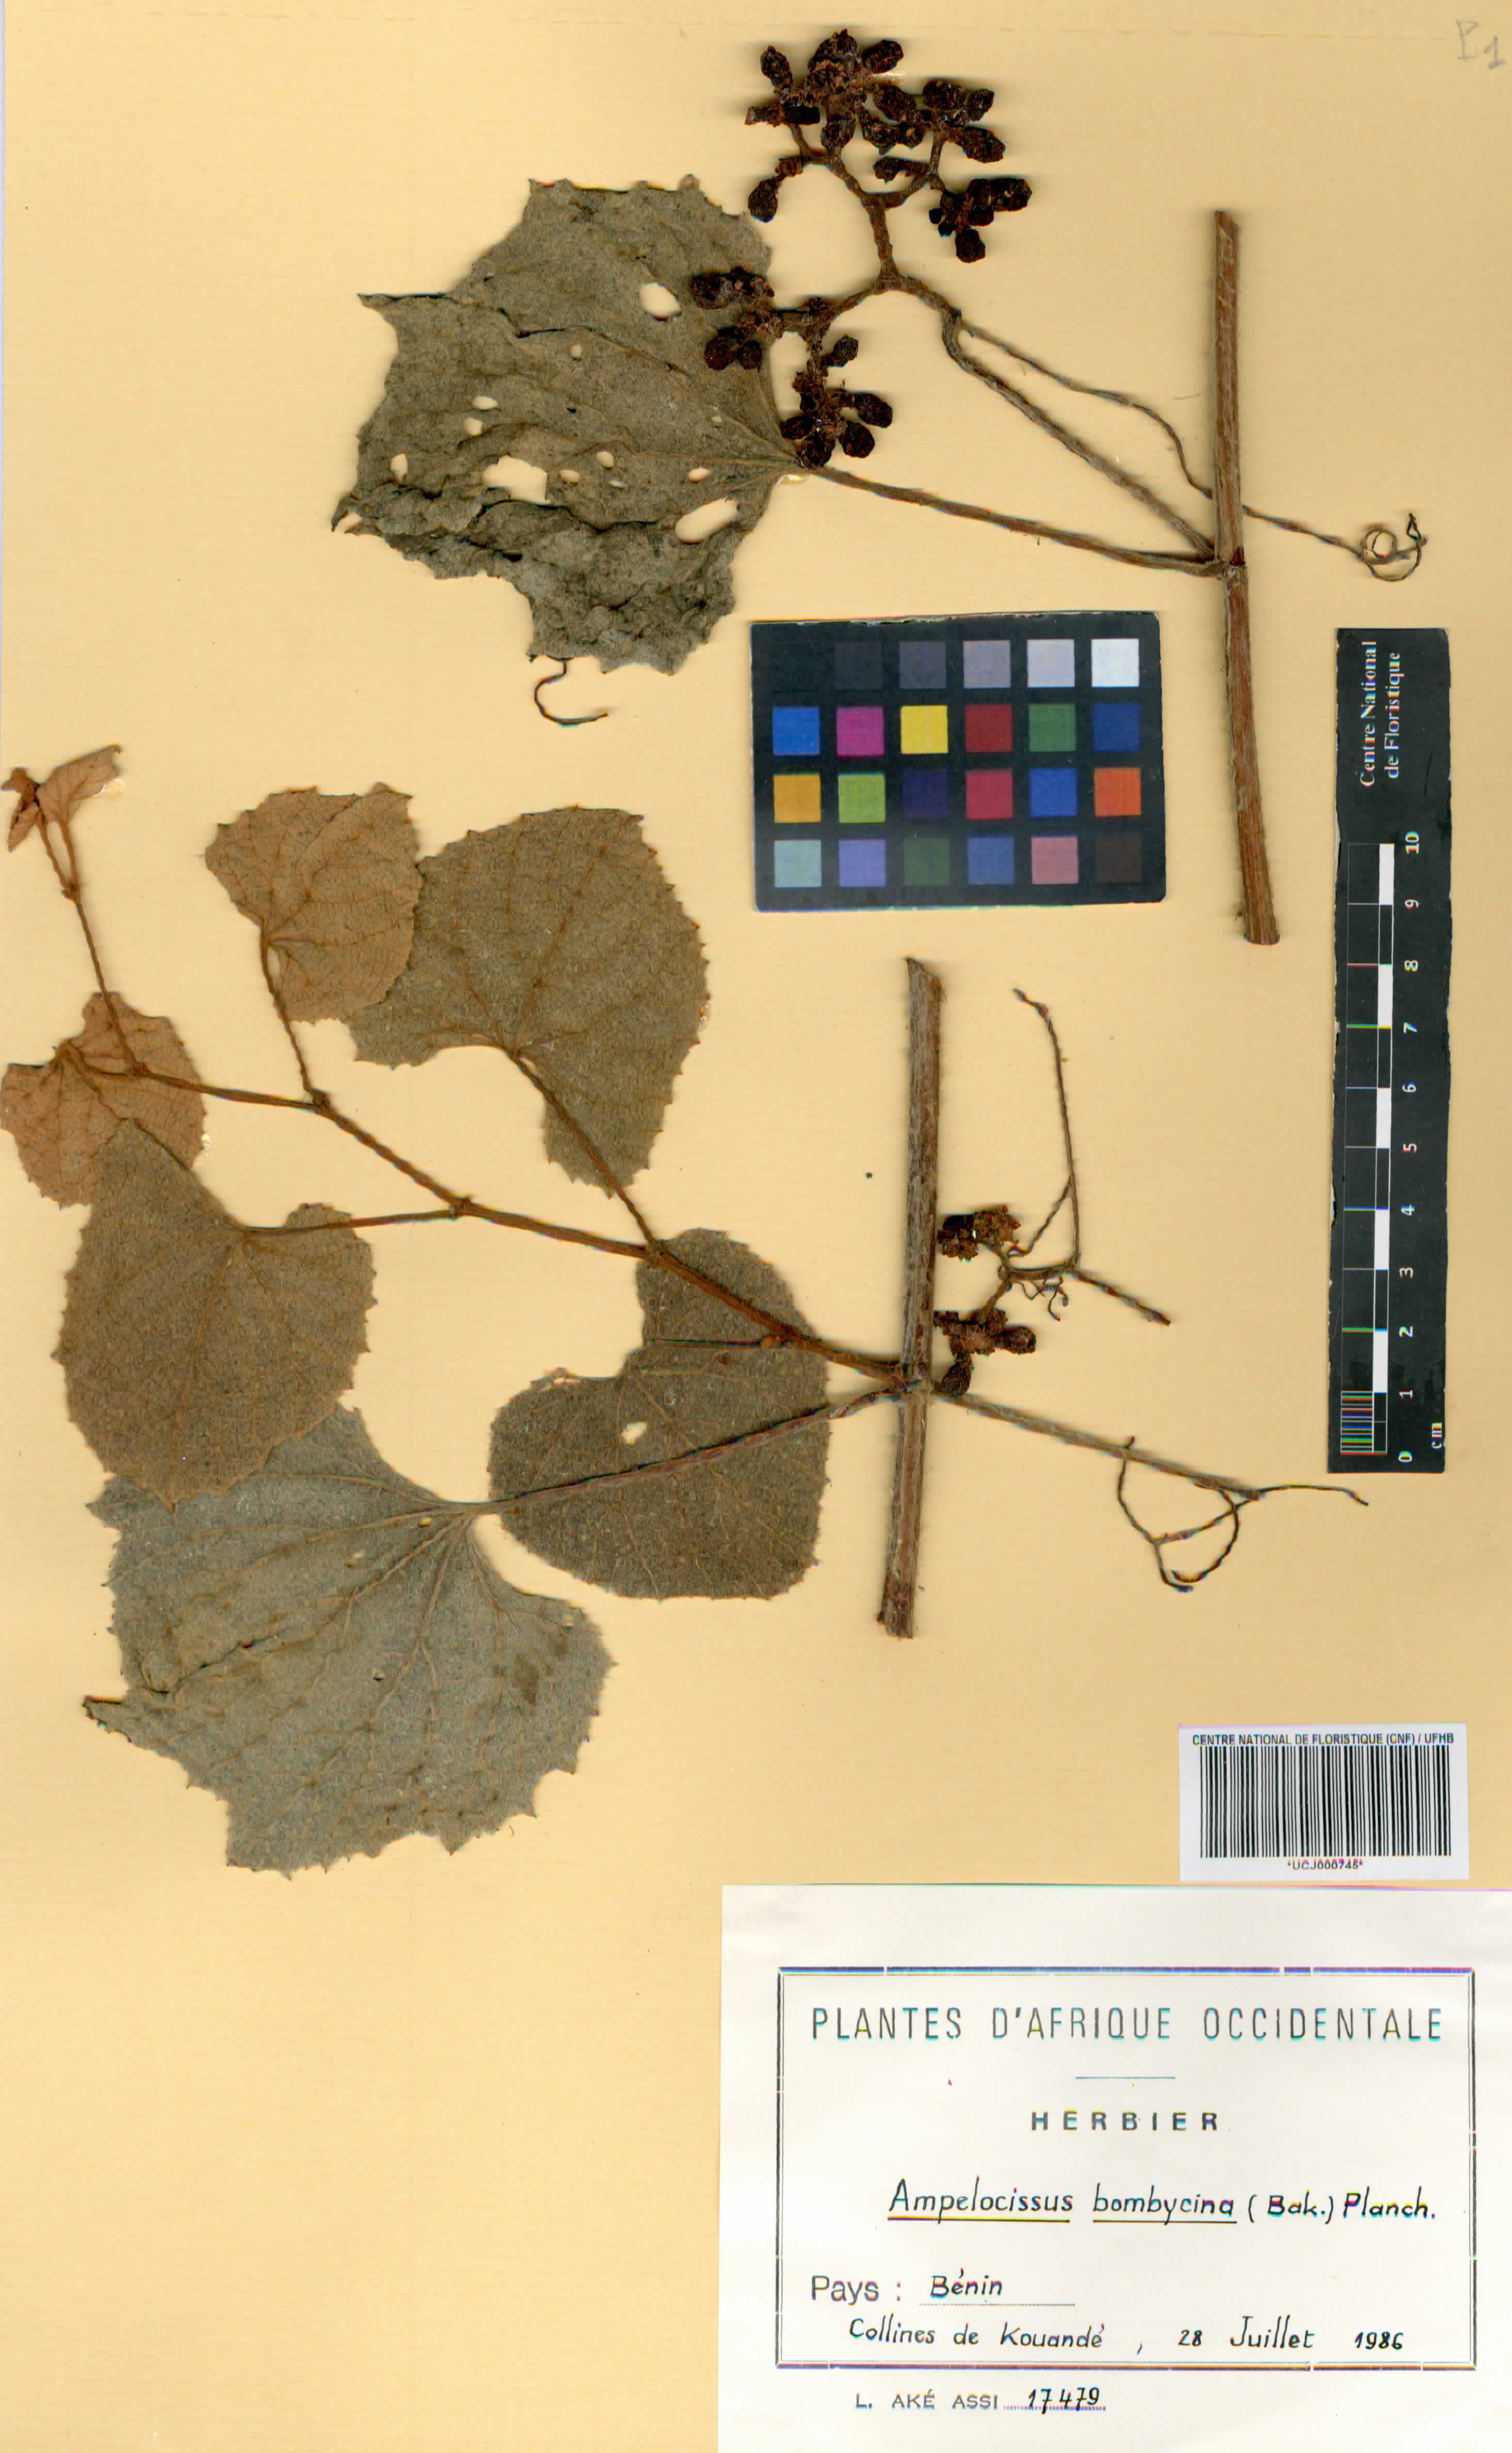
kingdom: Plantae
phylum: Tracheophyta
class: Magnoliopsida
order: Vitales
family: Vitaceae
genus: Ampelocissus
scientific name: Ampelocissus bombycina
